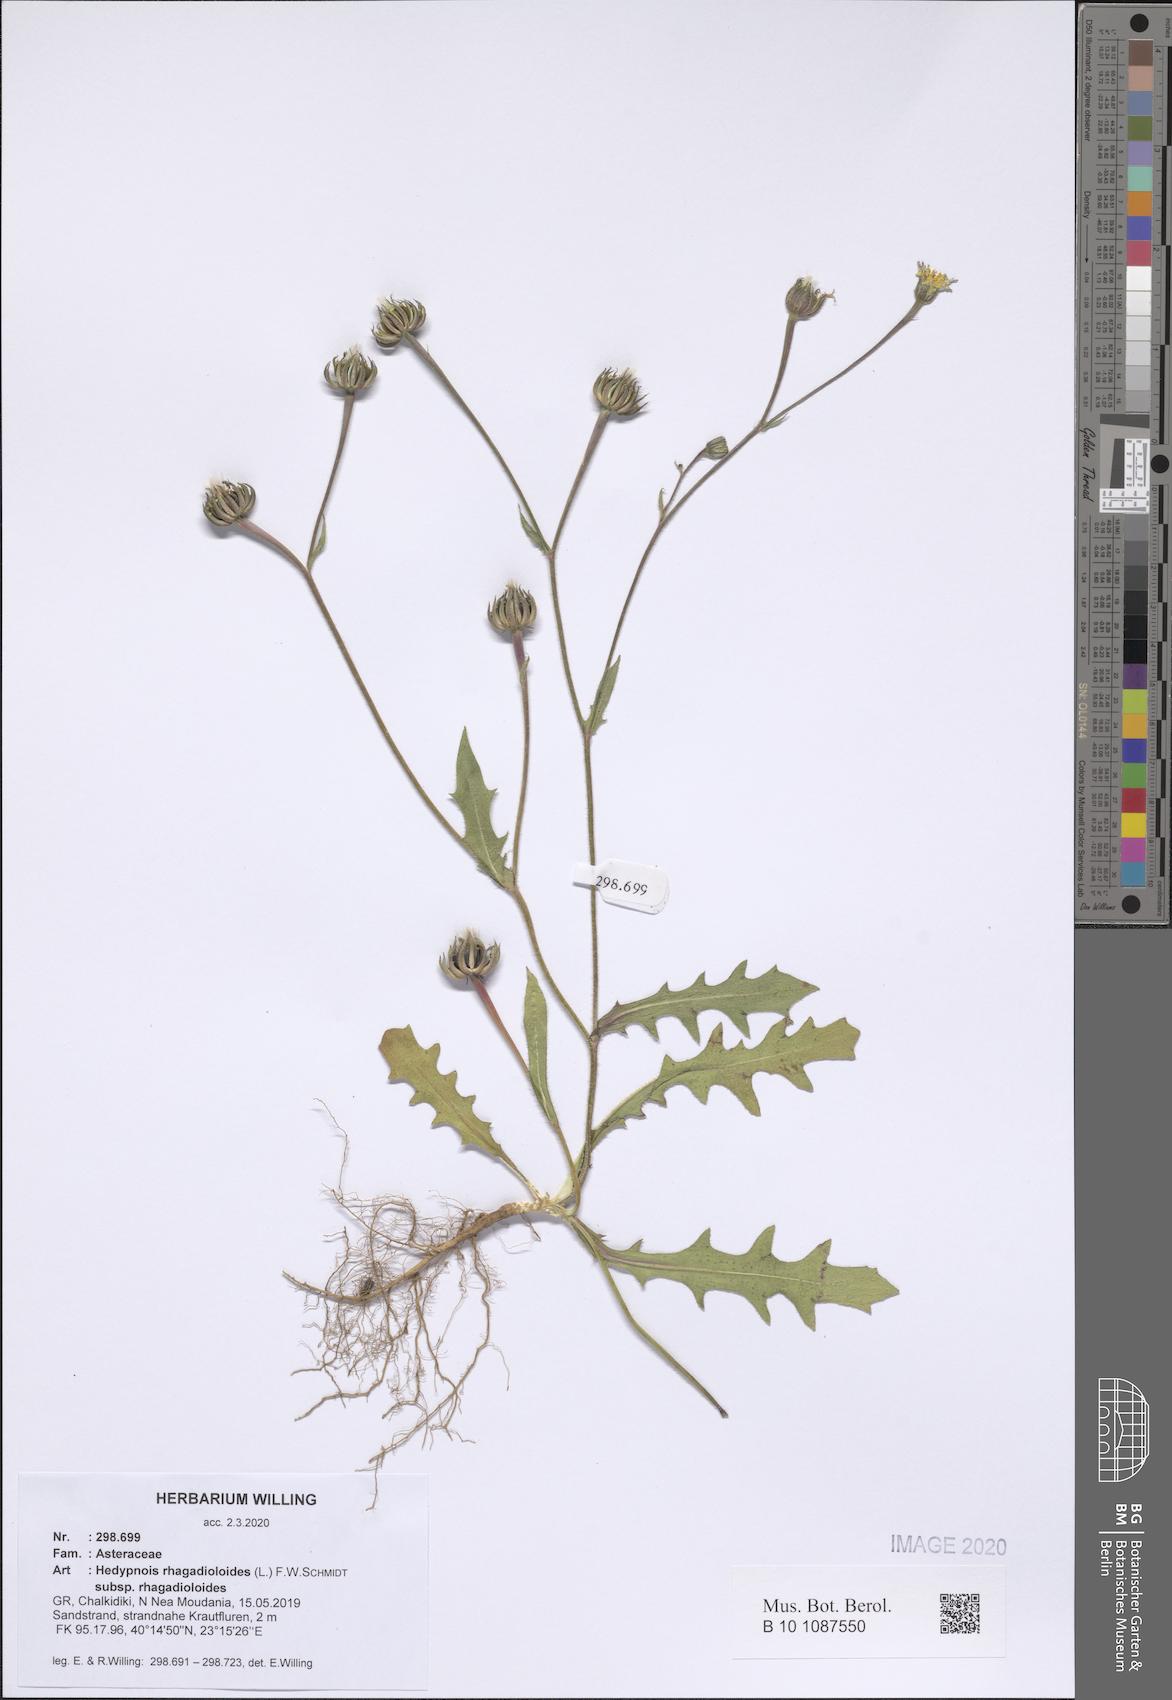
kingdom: Plantae
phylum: Tracheophyta
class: Magnoliopsida
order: Asterales
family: Asteraceae
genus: Hedypnois
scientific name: Hedypnois rhagadioloides
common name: Cretan weed
